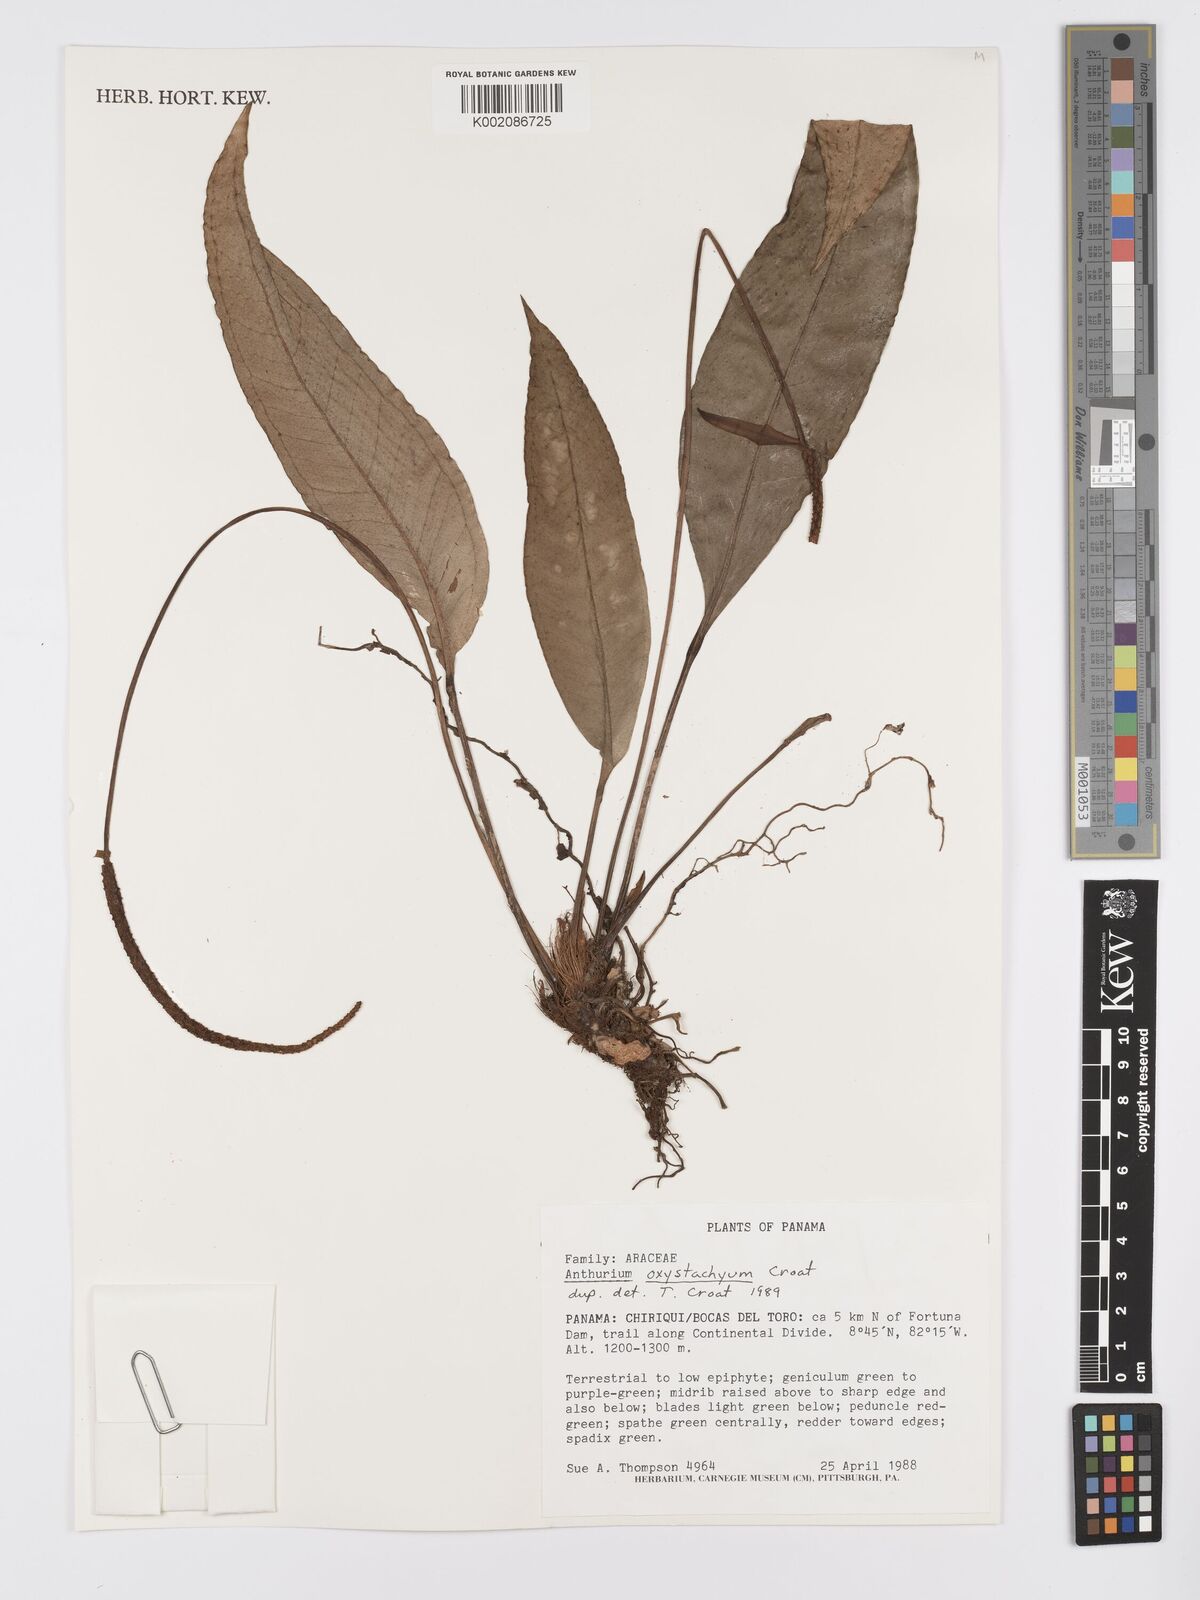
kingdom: Plantae
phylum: Tracheophyta
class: Liliopsida
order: Alismatales
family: Araceae
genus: Anthurium
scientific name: Anthurium oxystachyum
